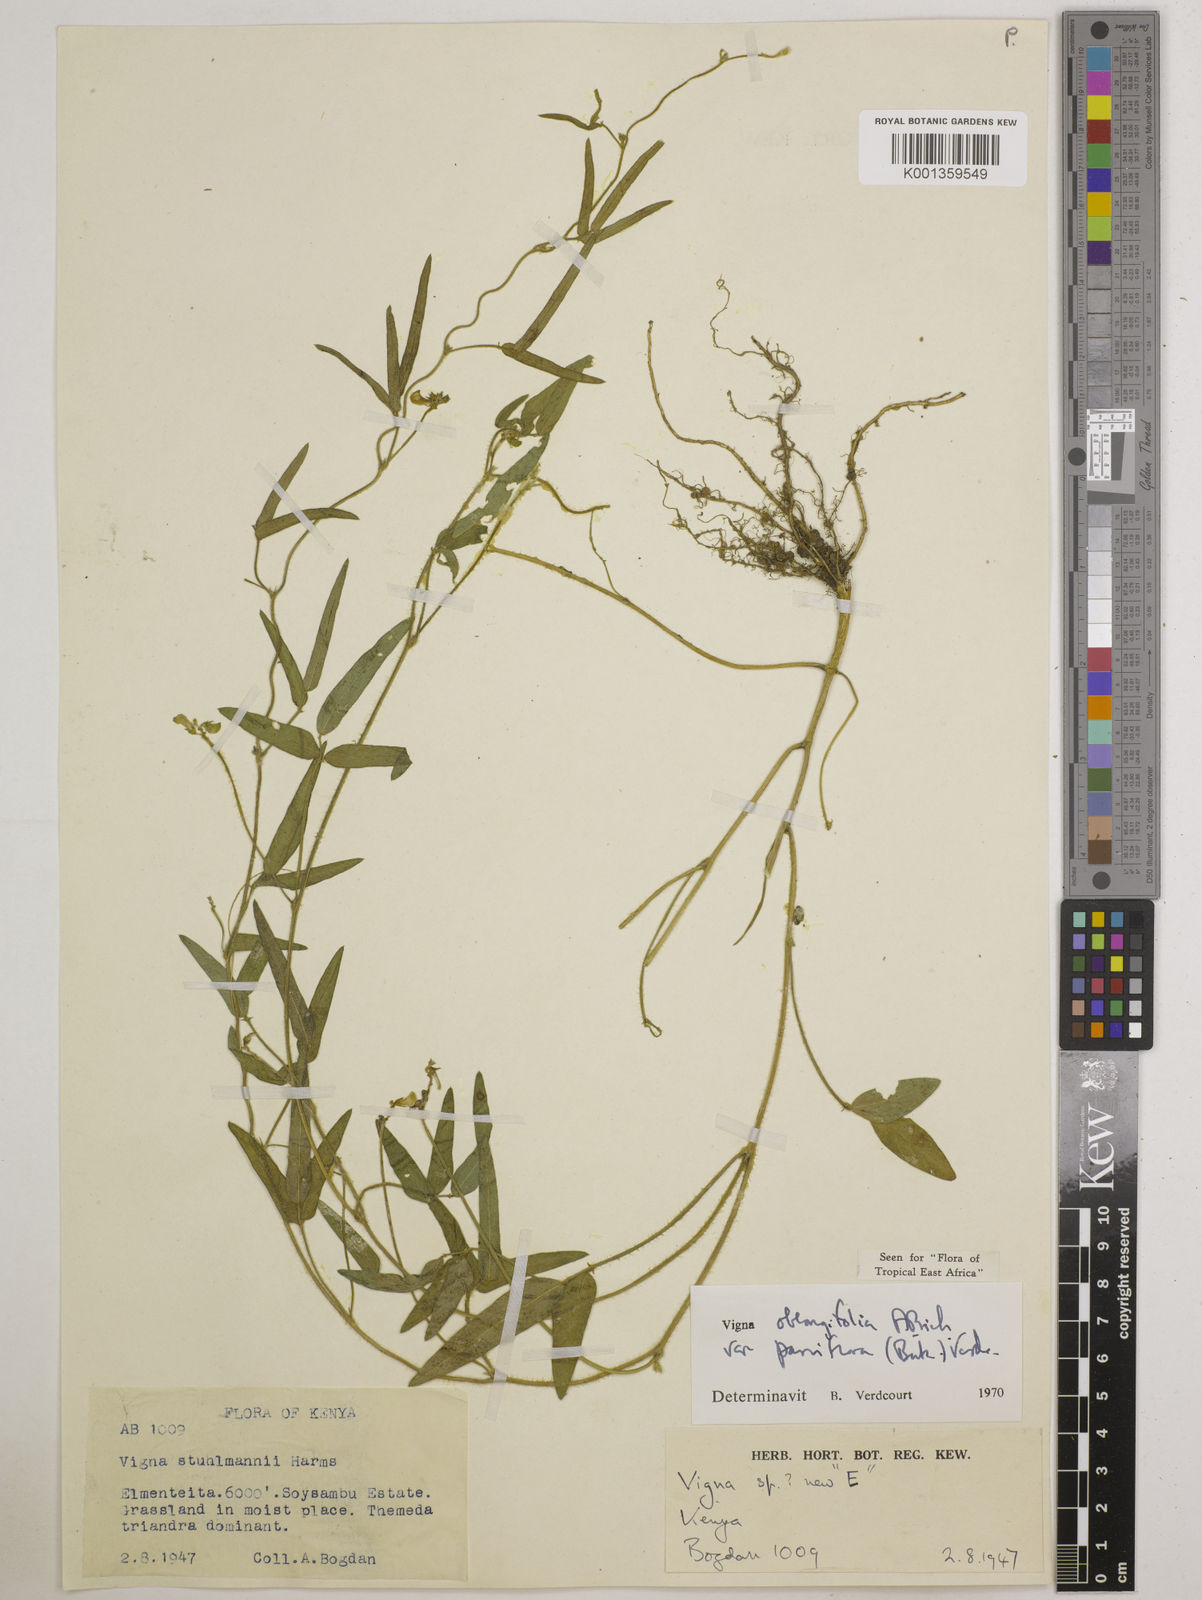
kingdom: Plantae
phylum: Tracheophyta
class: Magnoliopsida
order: Fabales
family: Fabaceae
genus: Vigna
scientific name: Vigna
